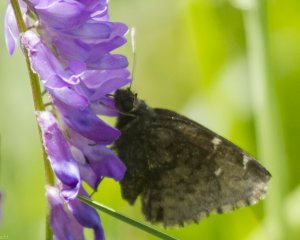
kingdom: Animalia
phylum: Arthropoda
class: Insecta
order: Lepidoptera
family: Hesperiidae
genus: Autochton
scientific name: Autochton
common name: Northern Cloudywing
